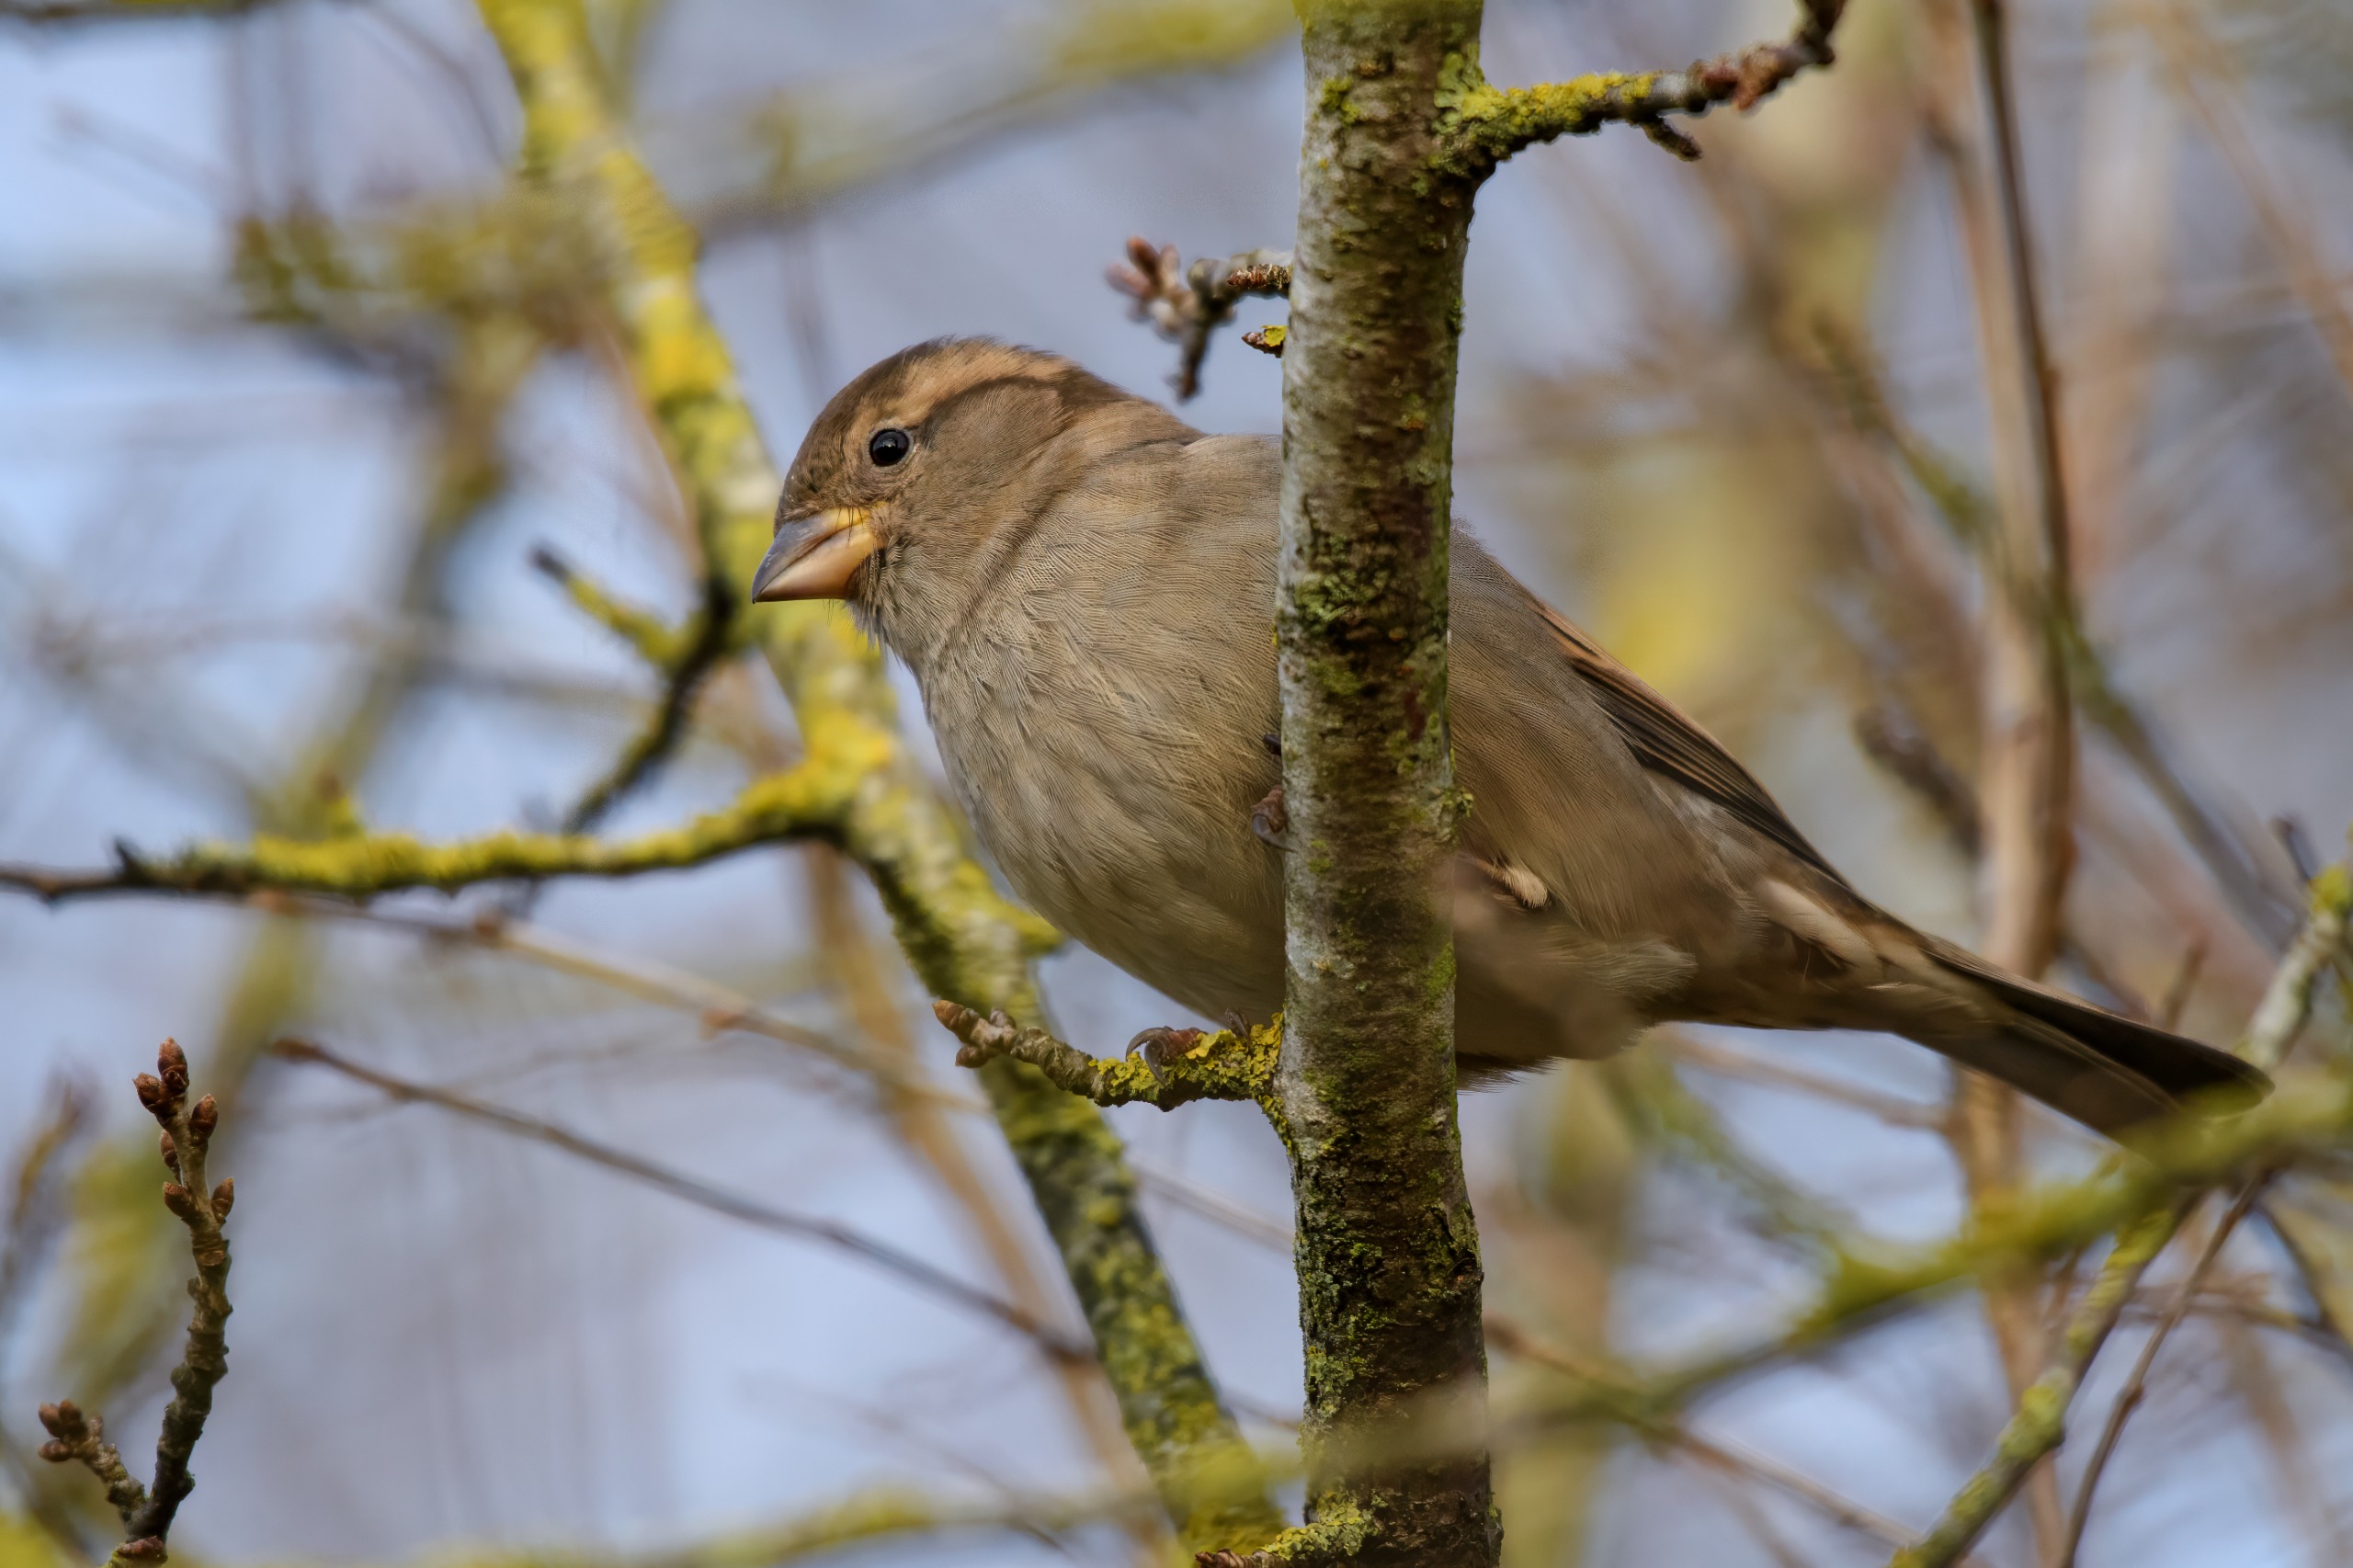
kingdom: Animalia
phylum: Chordata
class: Aves
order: Passeriformes
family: Passeridae
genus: Passer
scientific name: Passer domesticus
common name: Gråspurv
